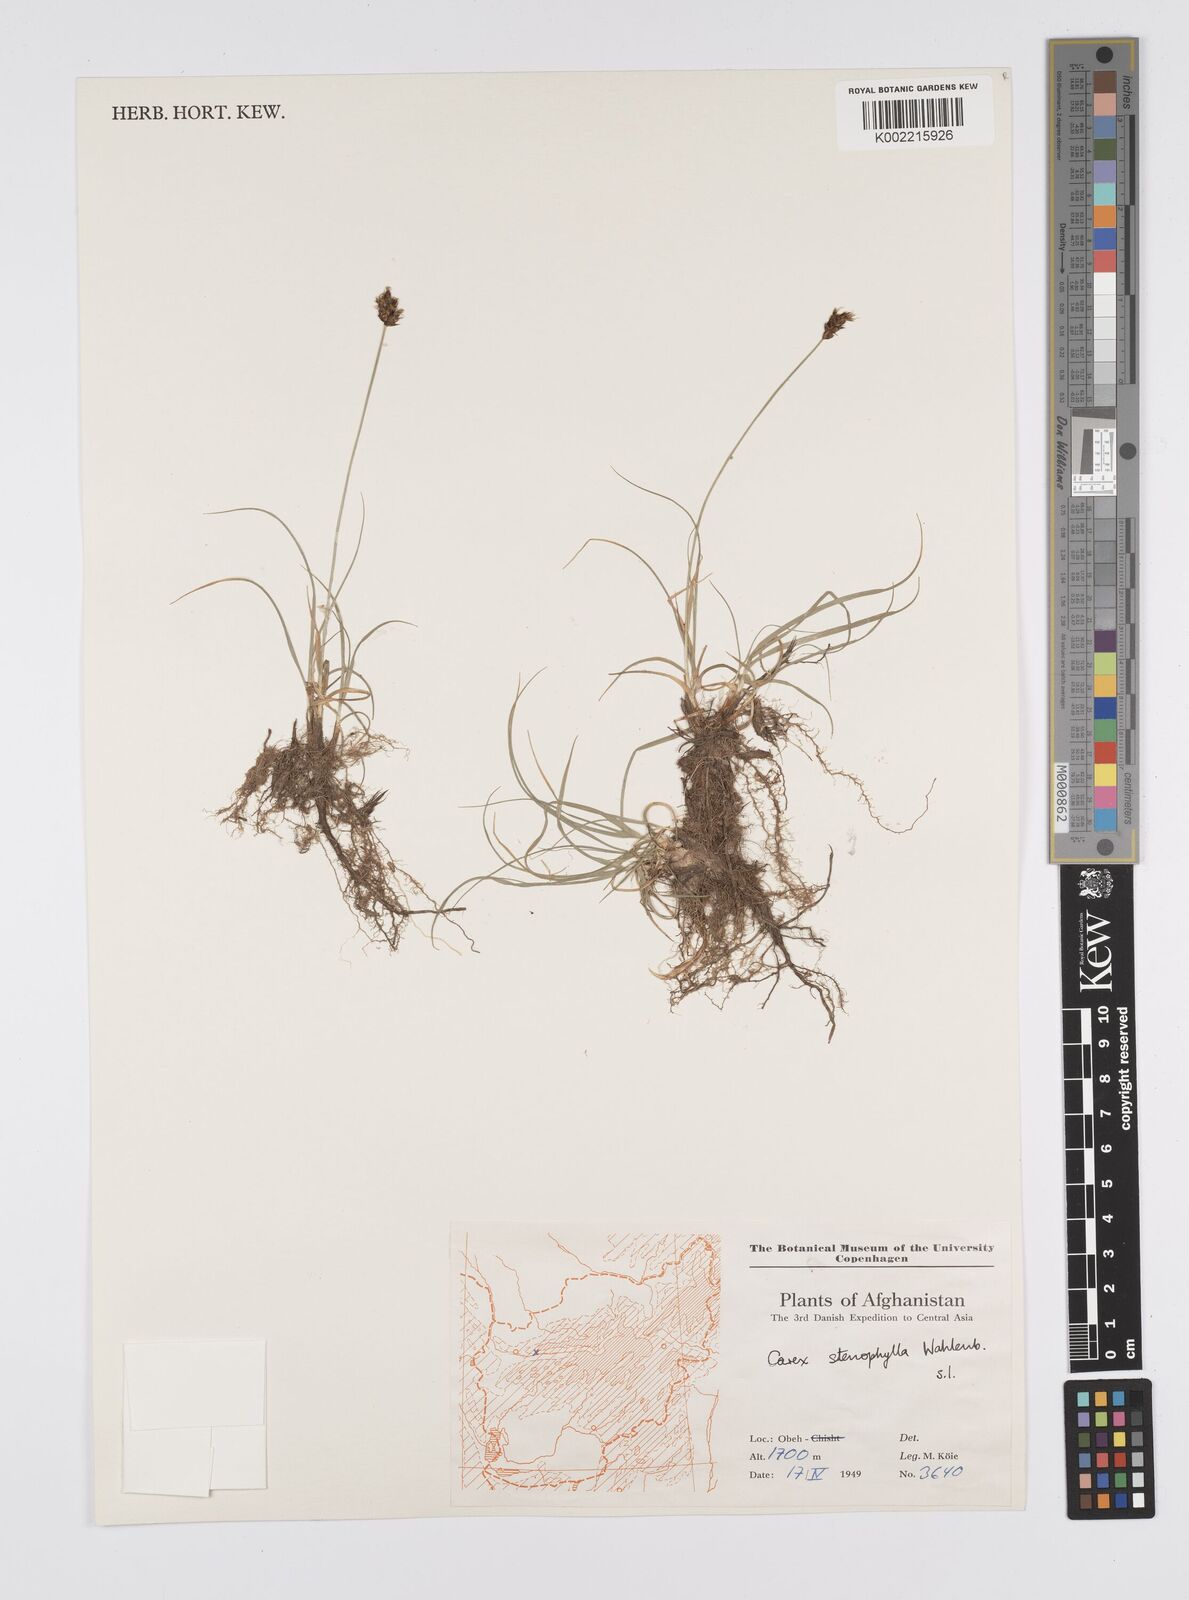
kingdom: Plantae
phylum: Tracheophyta
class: Liliopsida
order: Poales
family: Cyperaceae
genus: Carex
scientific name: Carex stenophylla
